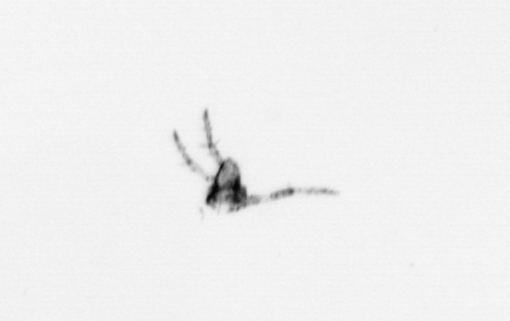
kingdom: Animalia
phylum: Arthropoda
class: Maxillopoda
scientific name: Maxillopoda
